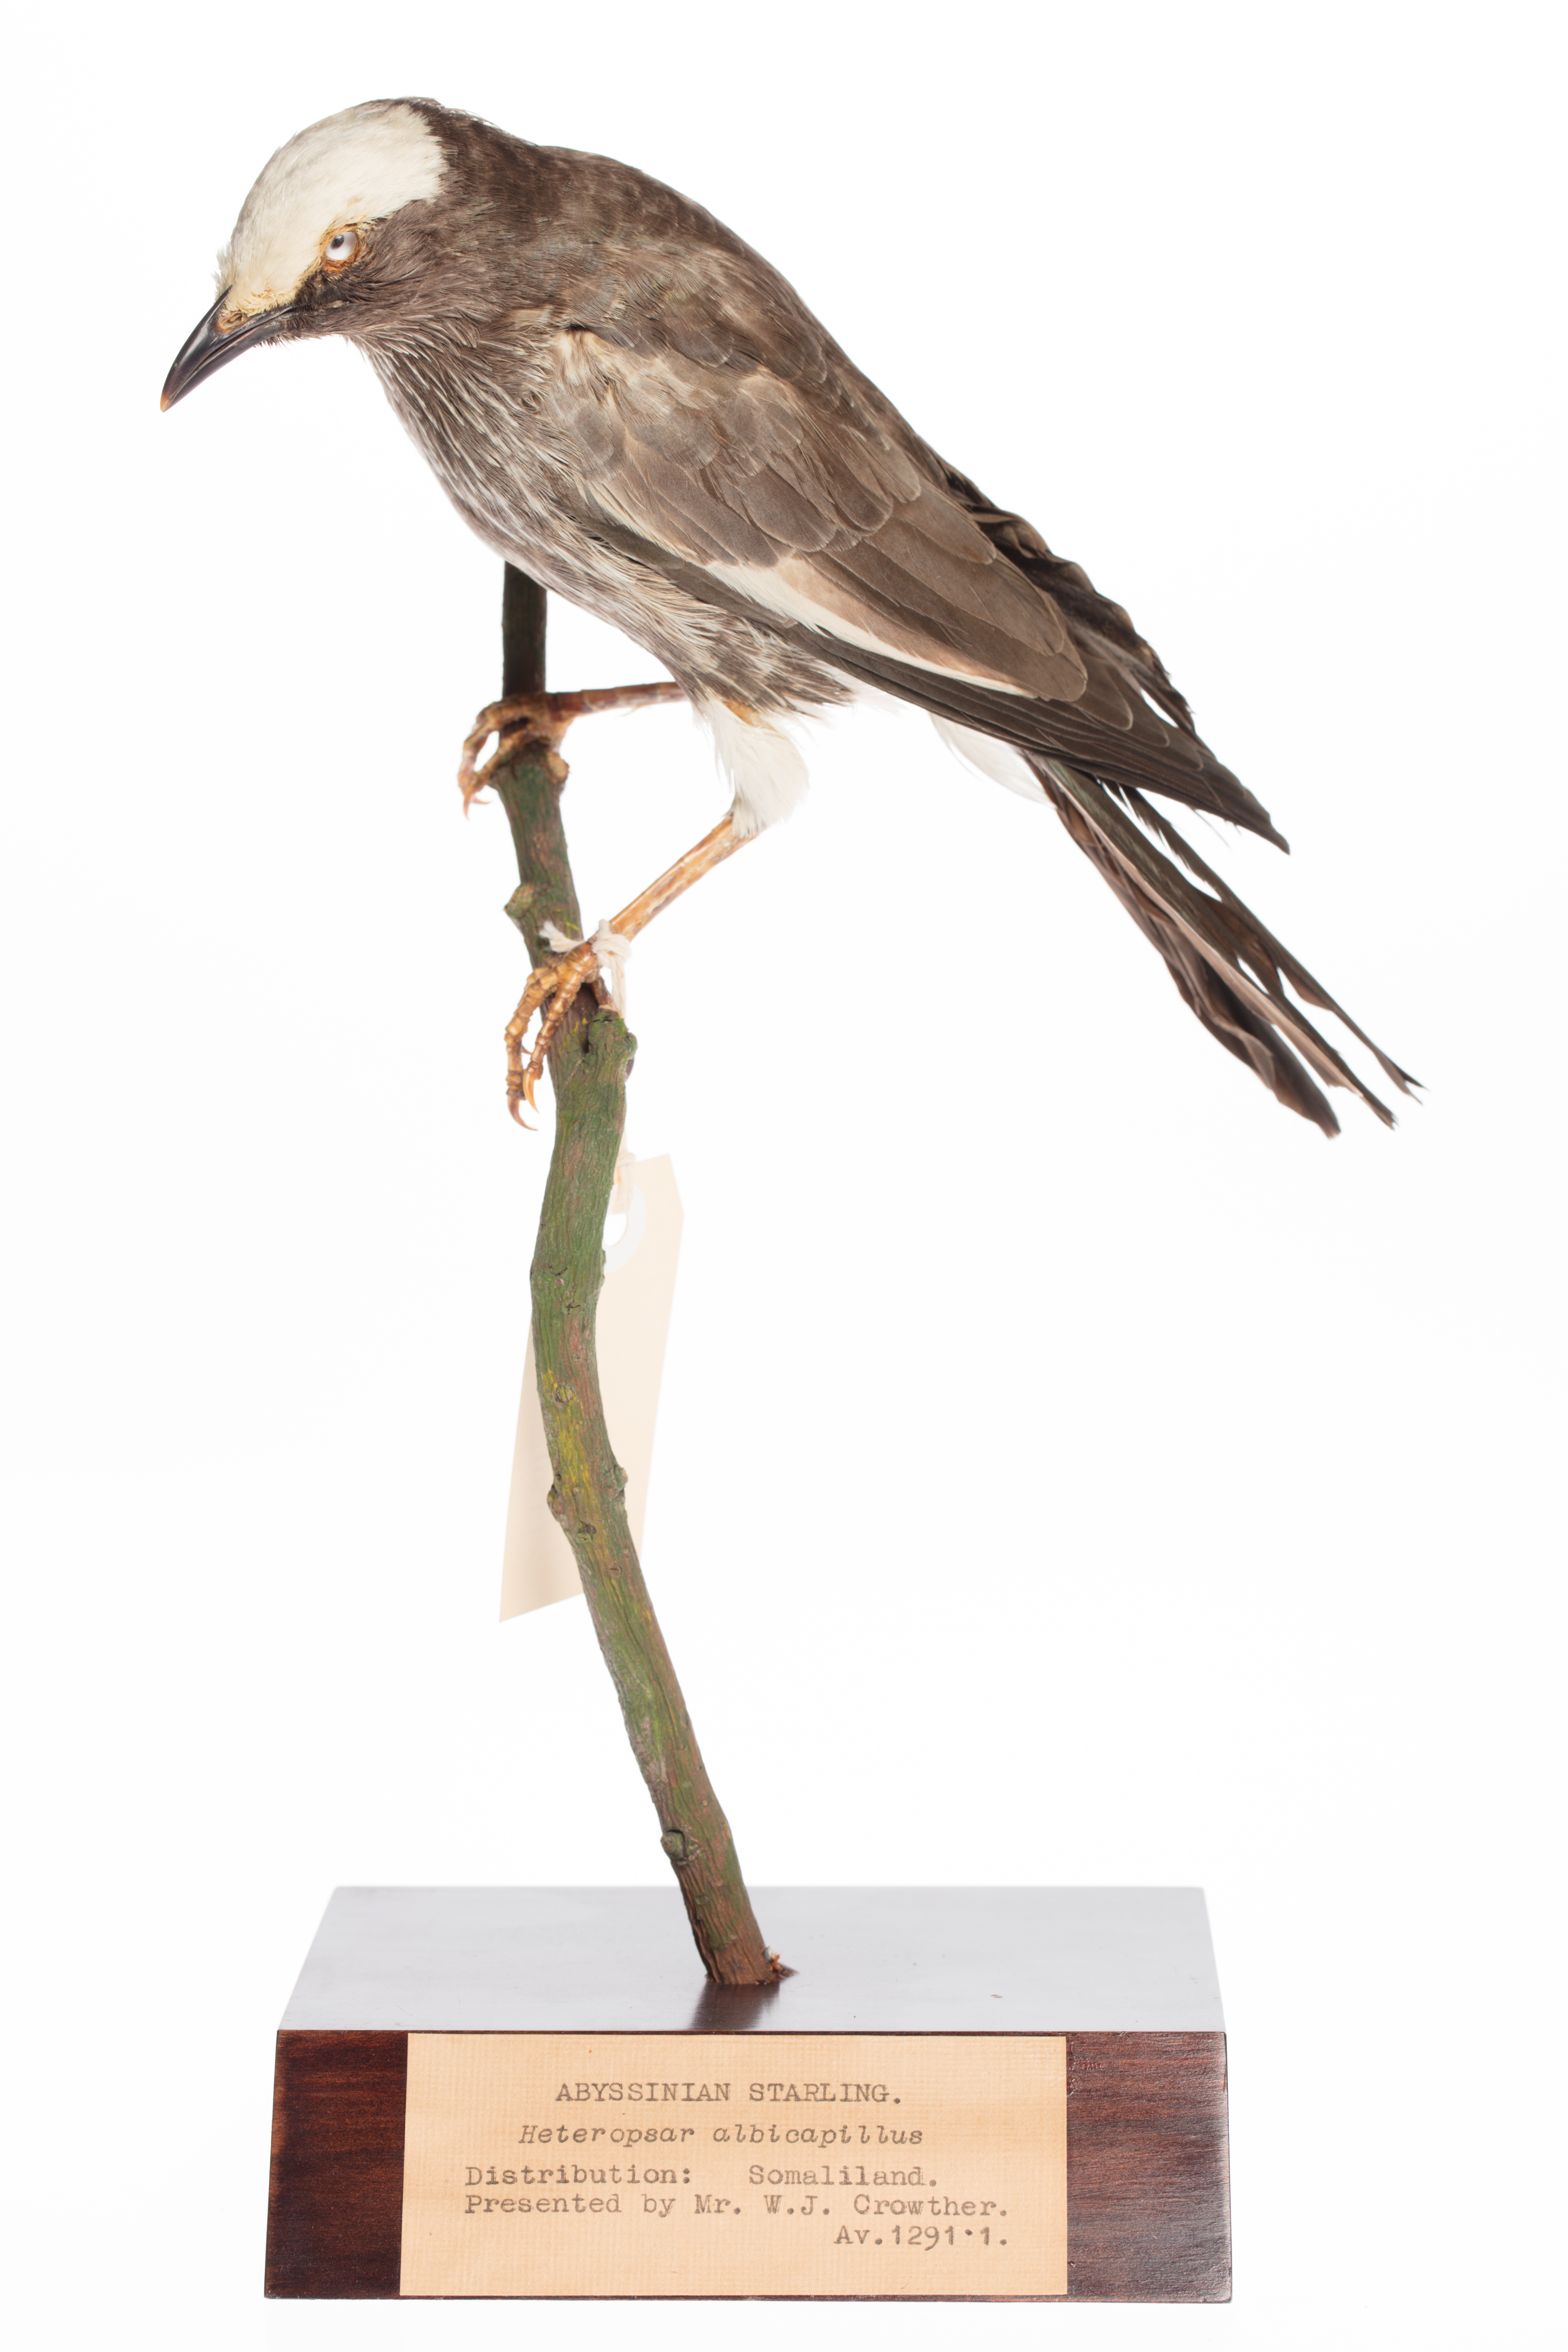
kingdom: Animalia
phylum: Chordata
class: Aves
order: Passeriformes
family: Sturnidae
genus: Lamprotornis
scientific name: Lamprotornis albicapillus
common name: White-crowned starling
